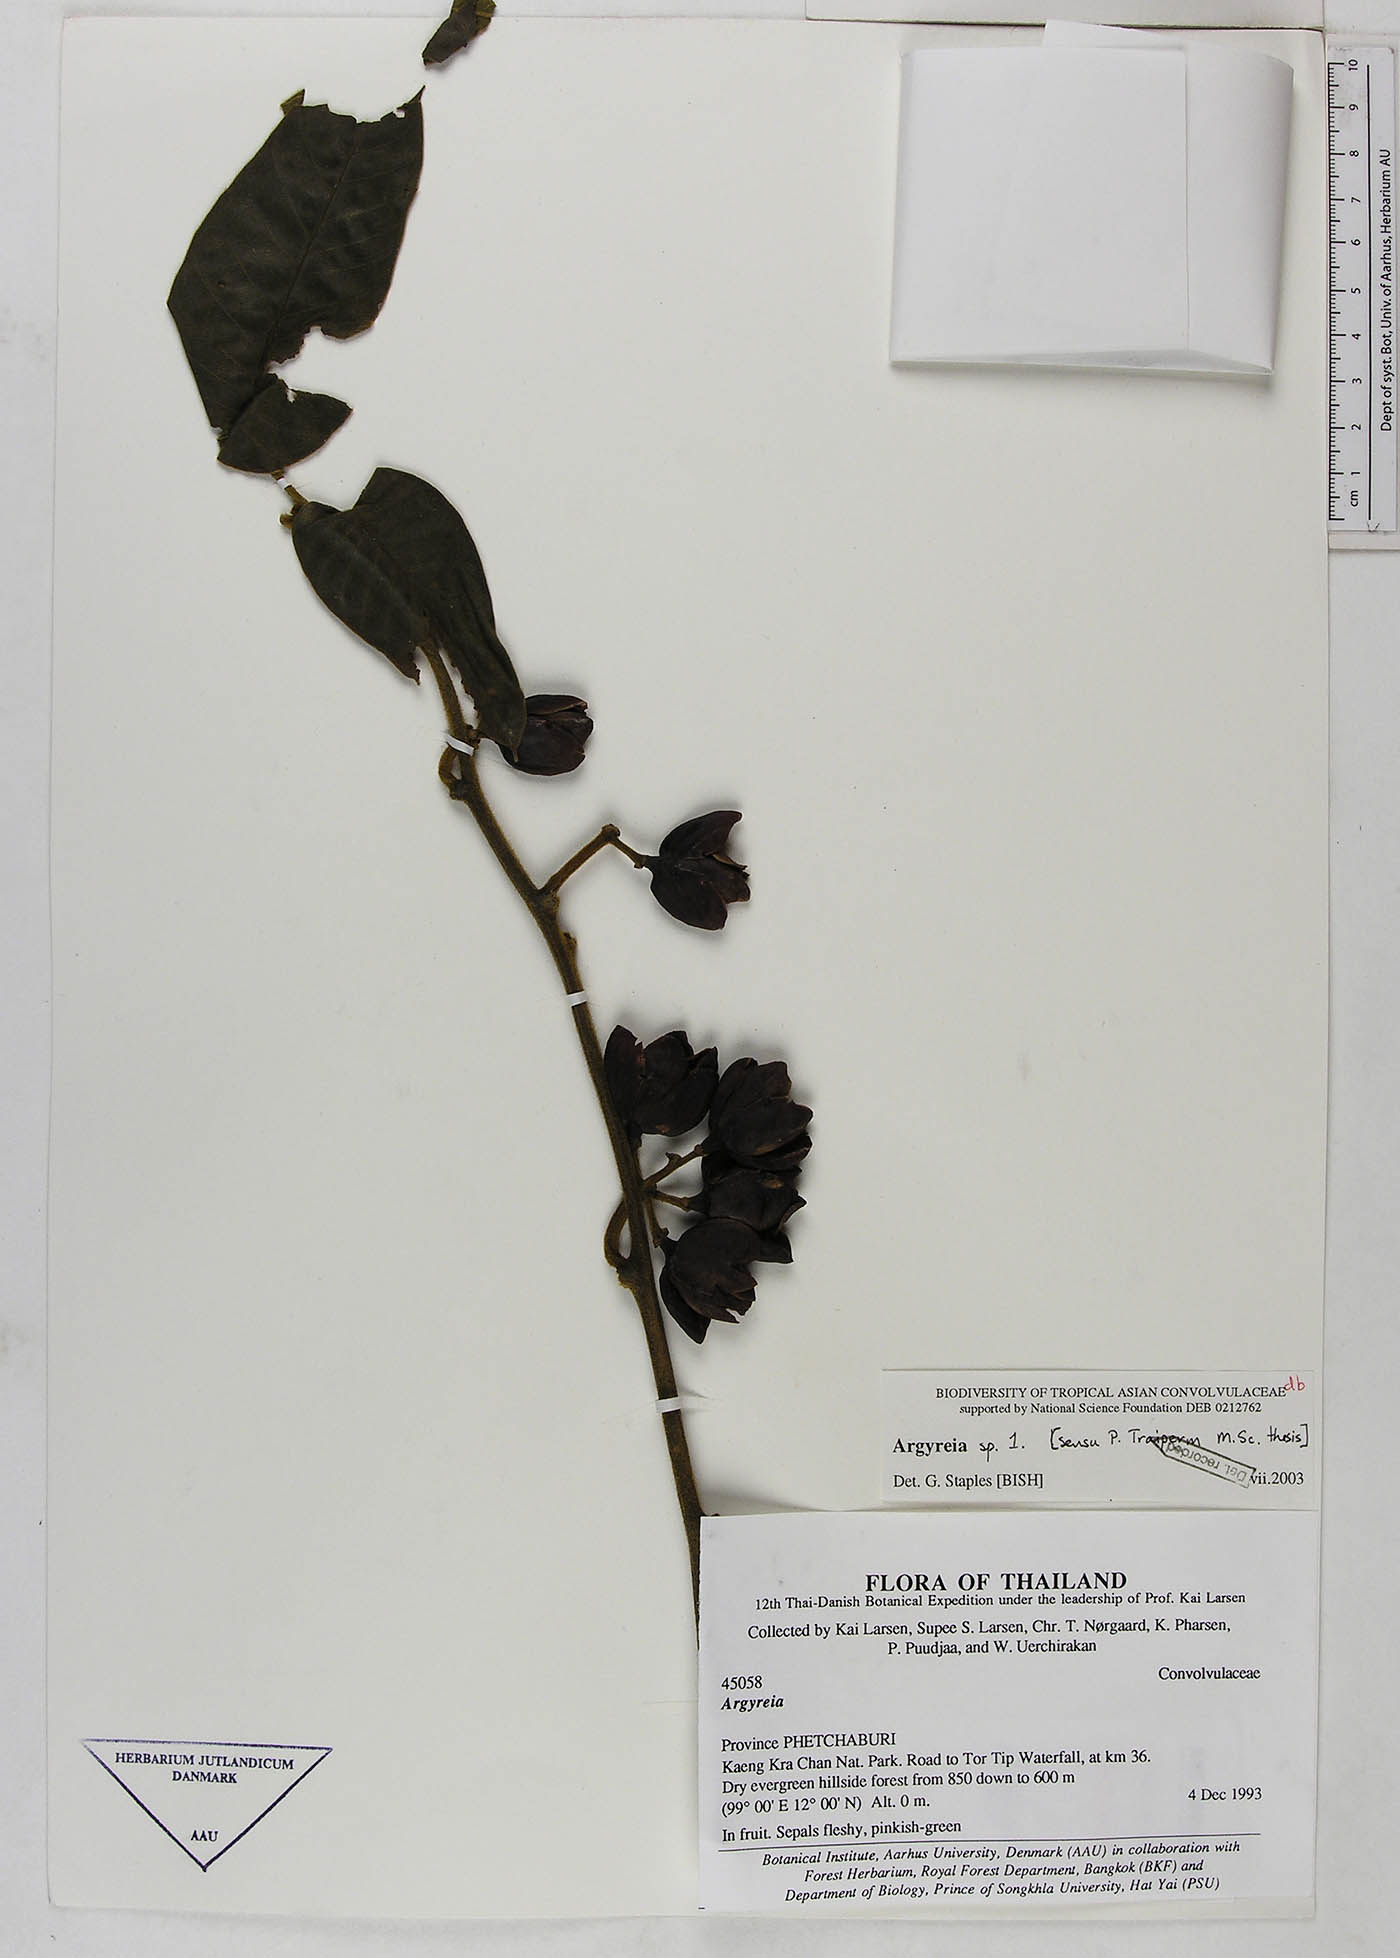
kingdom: Plantae
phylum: Tracheophyta
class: Magnoliopsida
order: Solanales
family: Convolvulaceae
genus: Argyreia
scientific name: Argyreia
